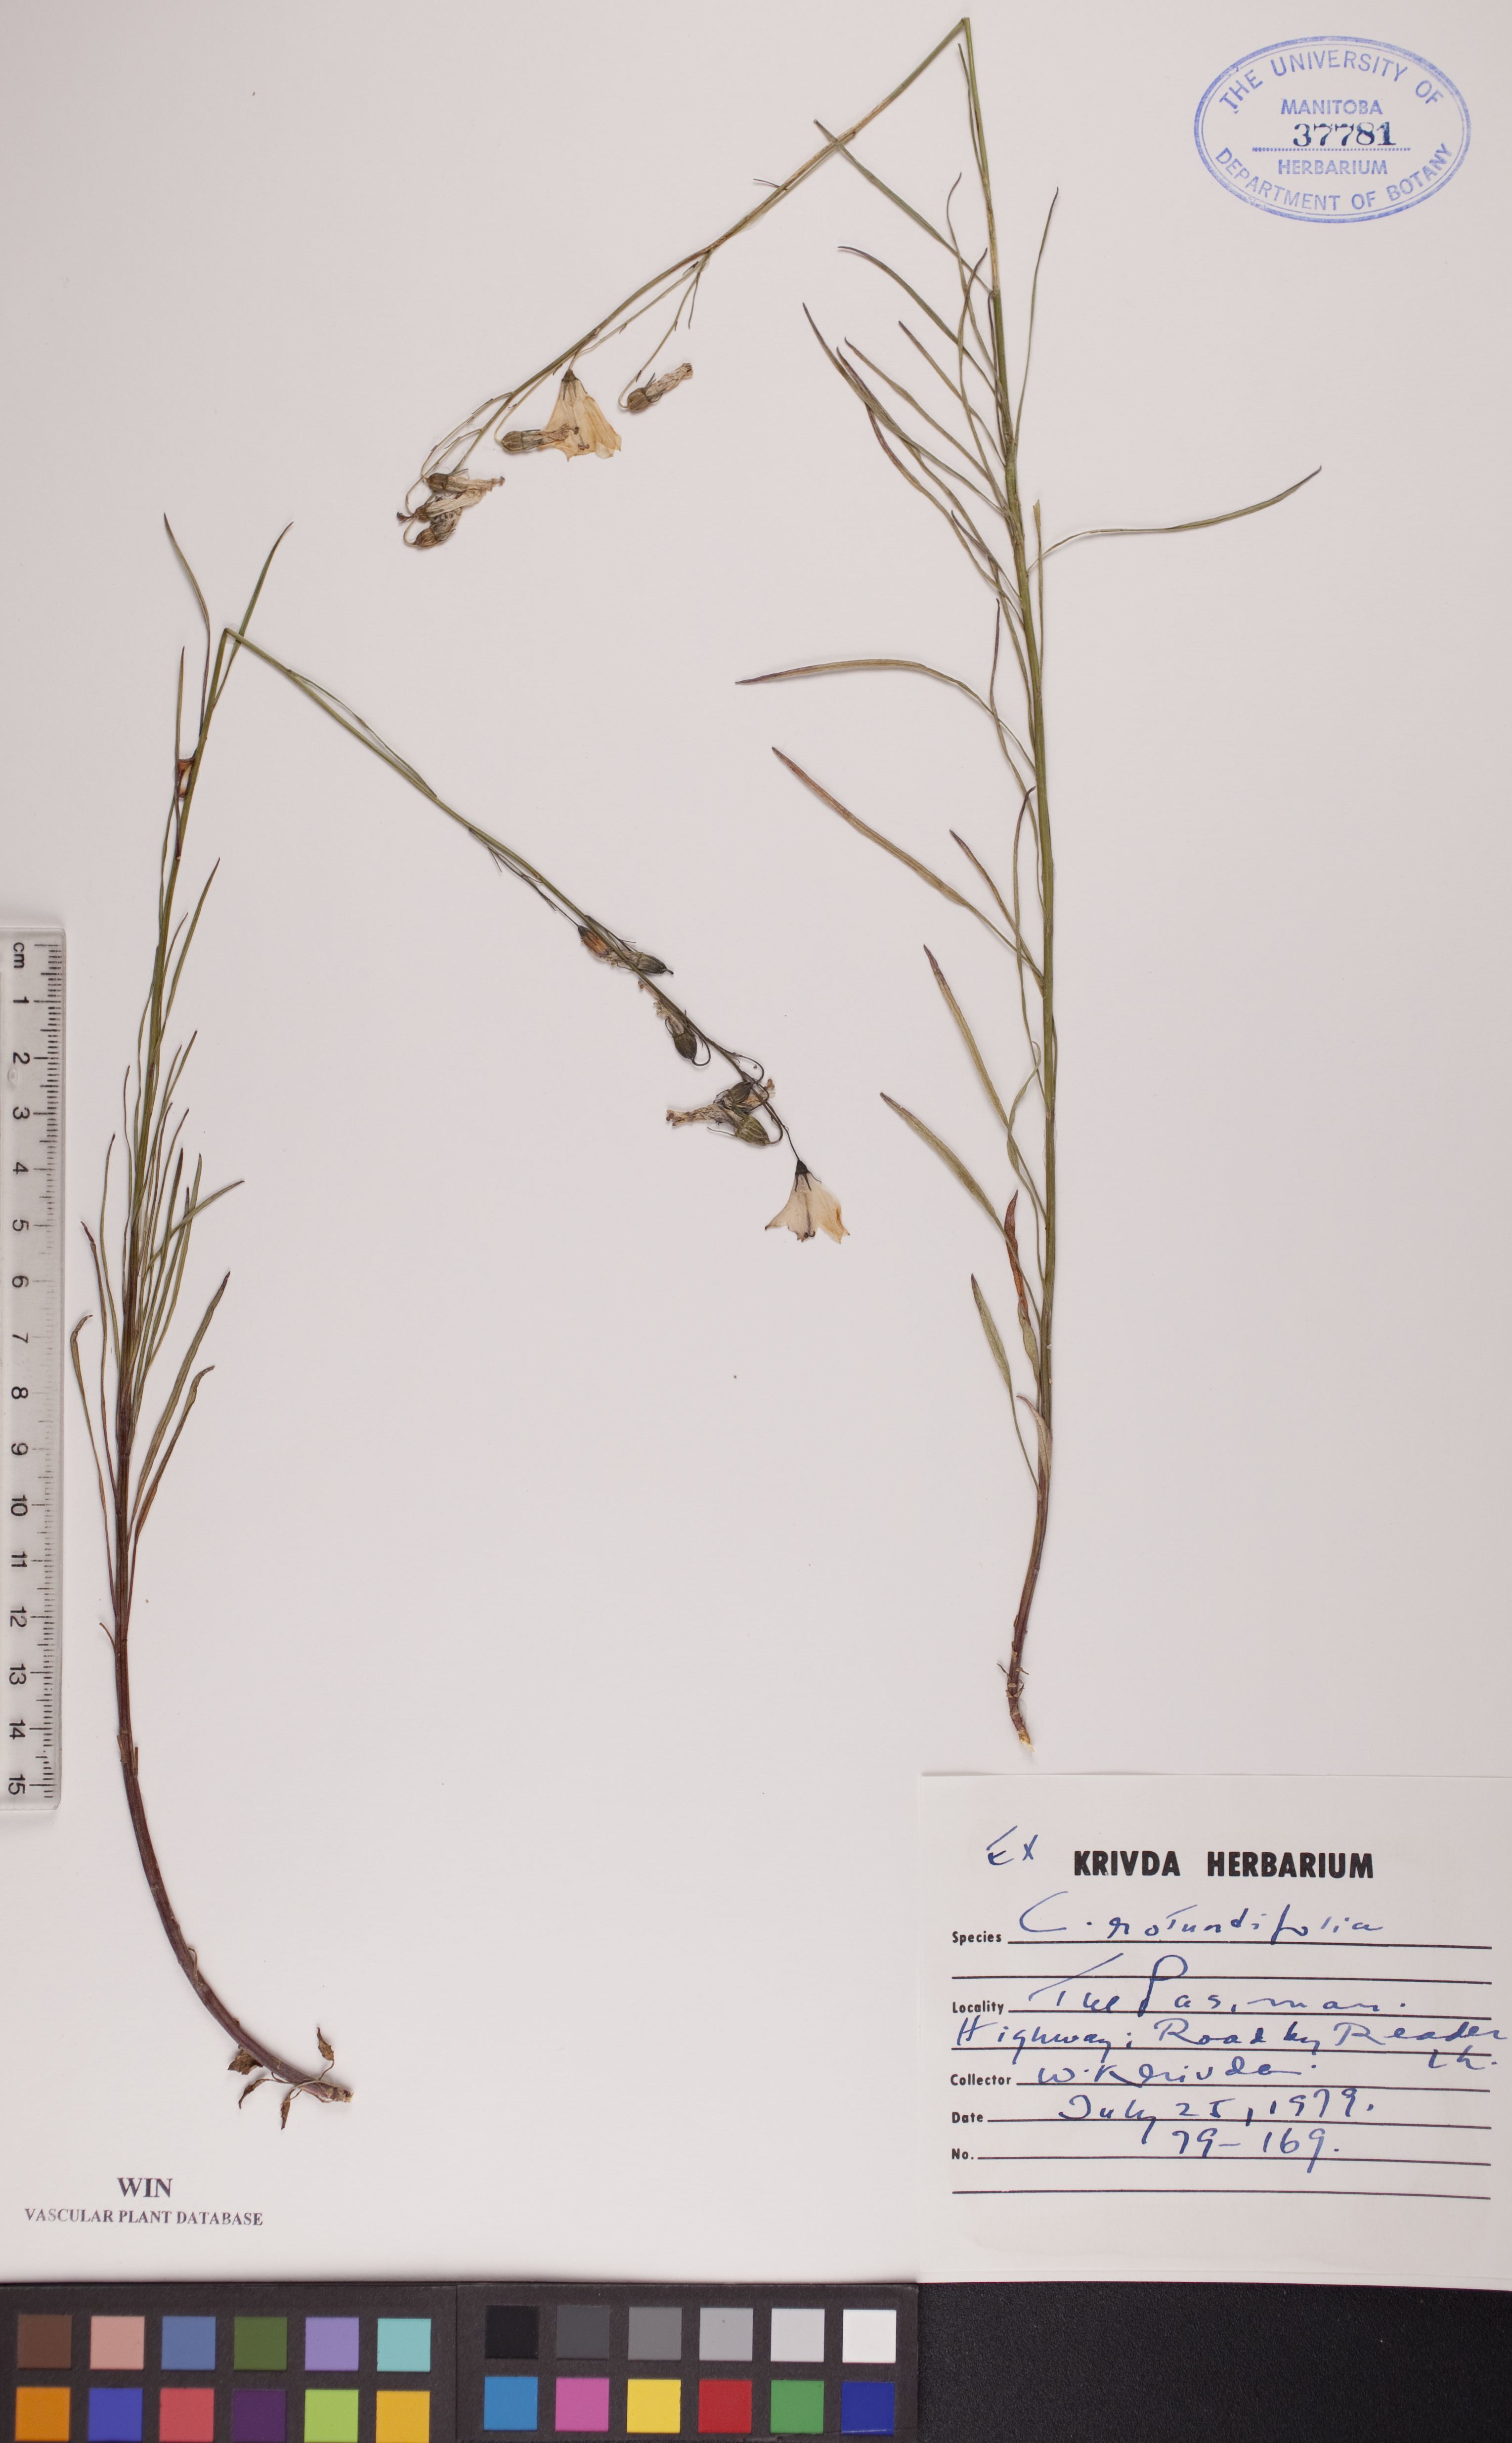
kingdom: Plantae
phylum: Tracheophyta
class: Magnoliopsida
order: Asterales
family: Campanulaceae
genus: Campanula
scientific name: Campanula rotundifolia
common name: Harebell
